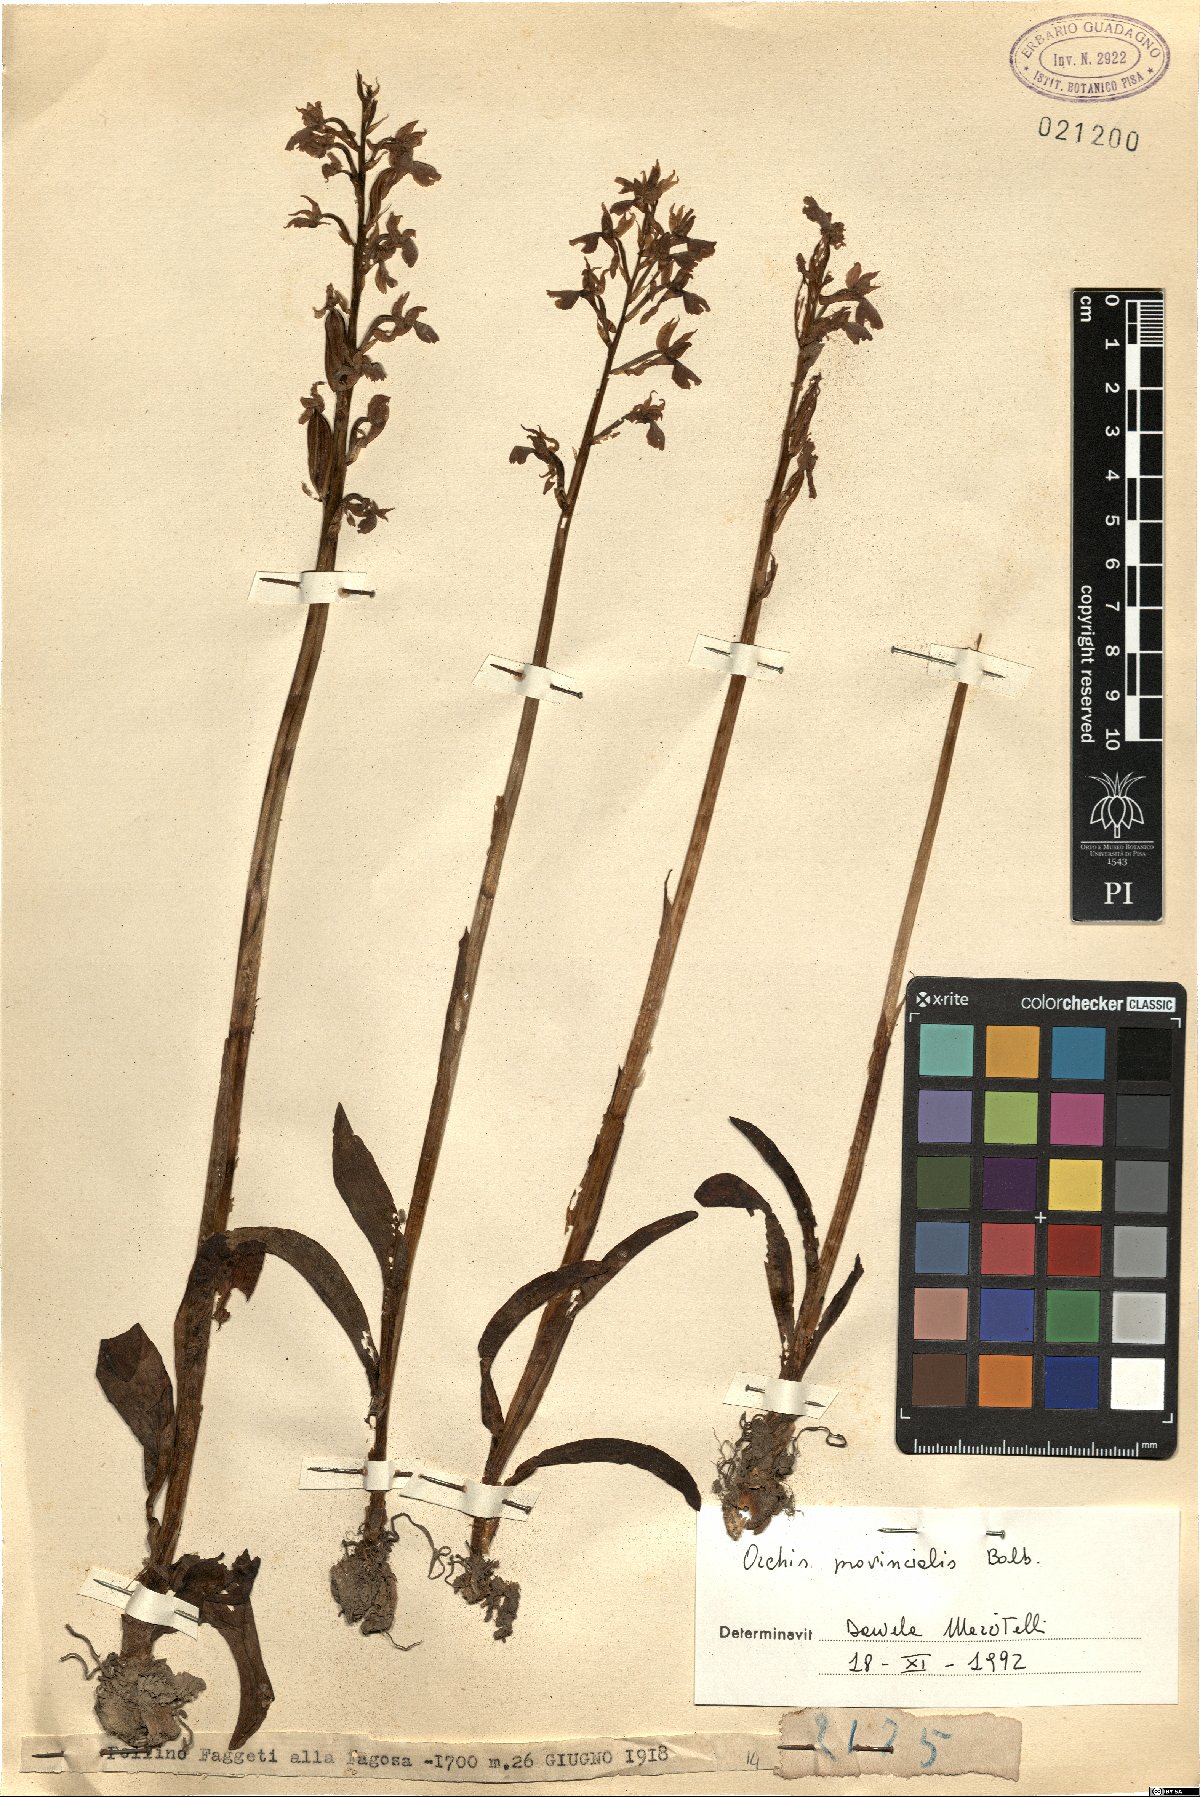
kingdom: Plantae
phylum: Tracheophyta
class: Liliopsida
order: Asparagales
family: Orchidaceae
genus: Orchis
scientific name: Orchis provincialis
